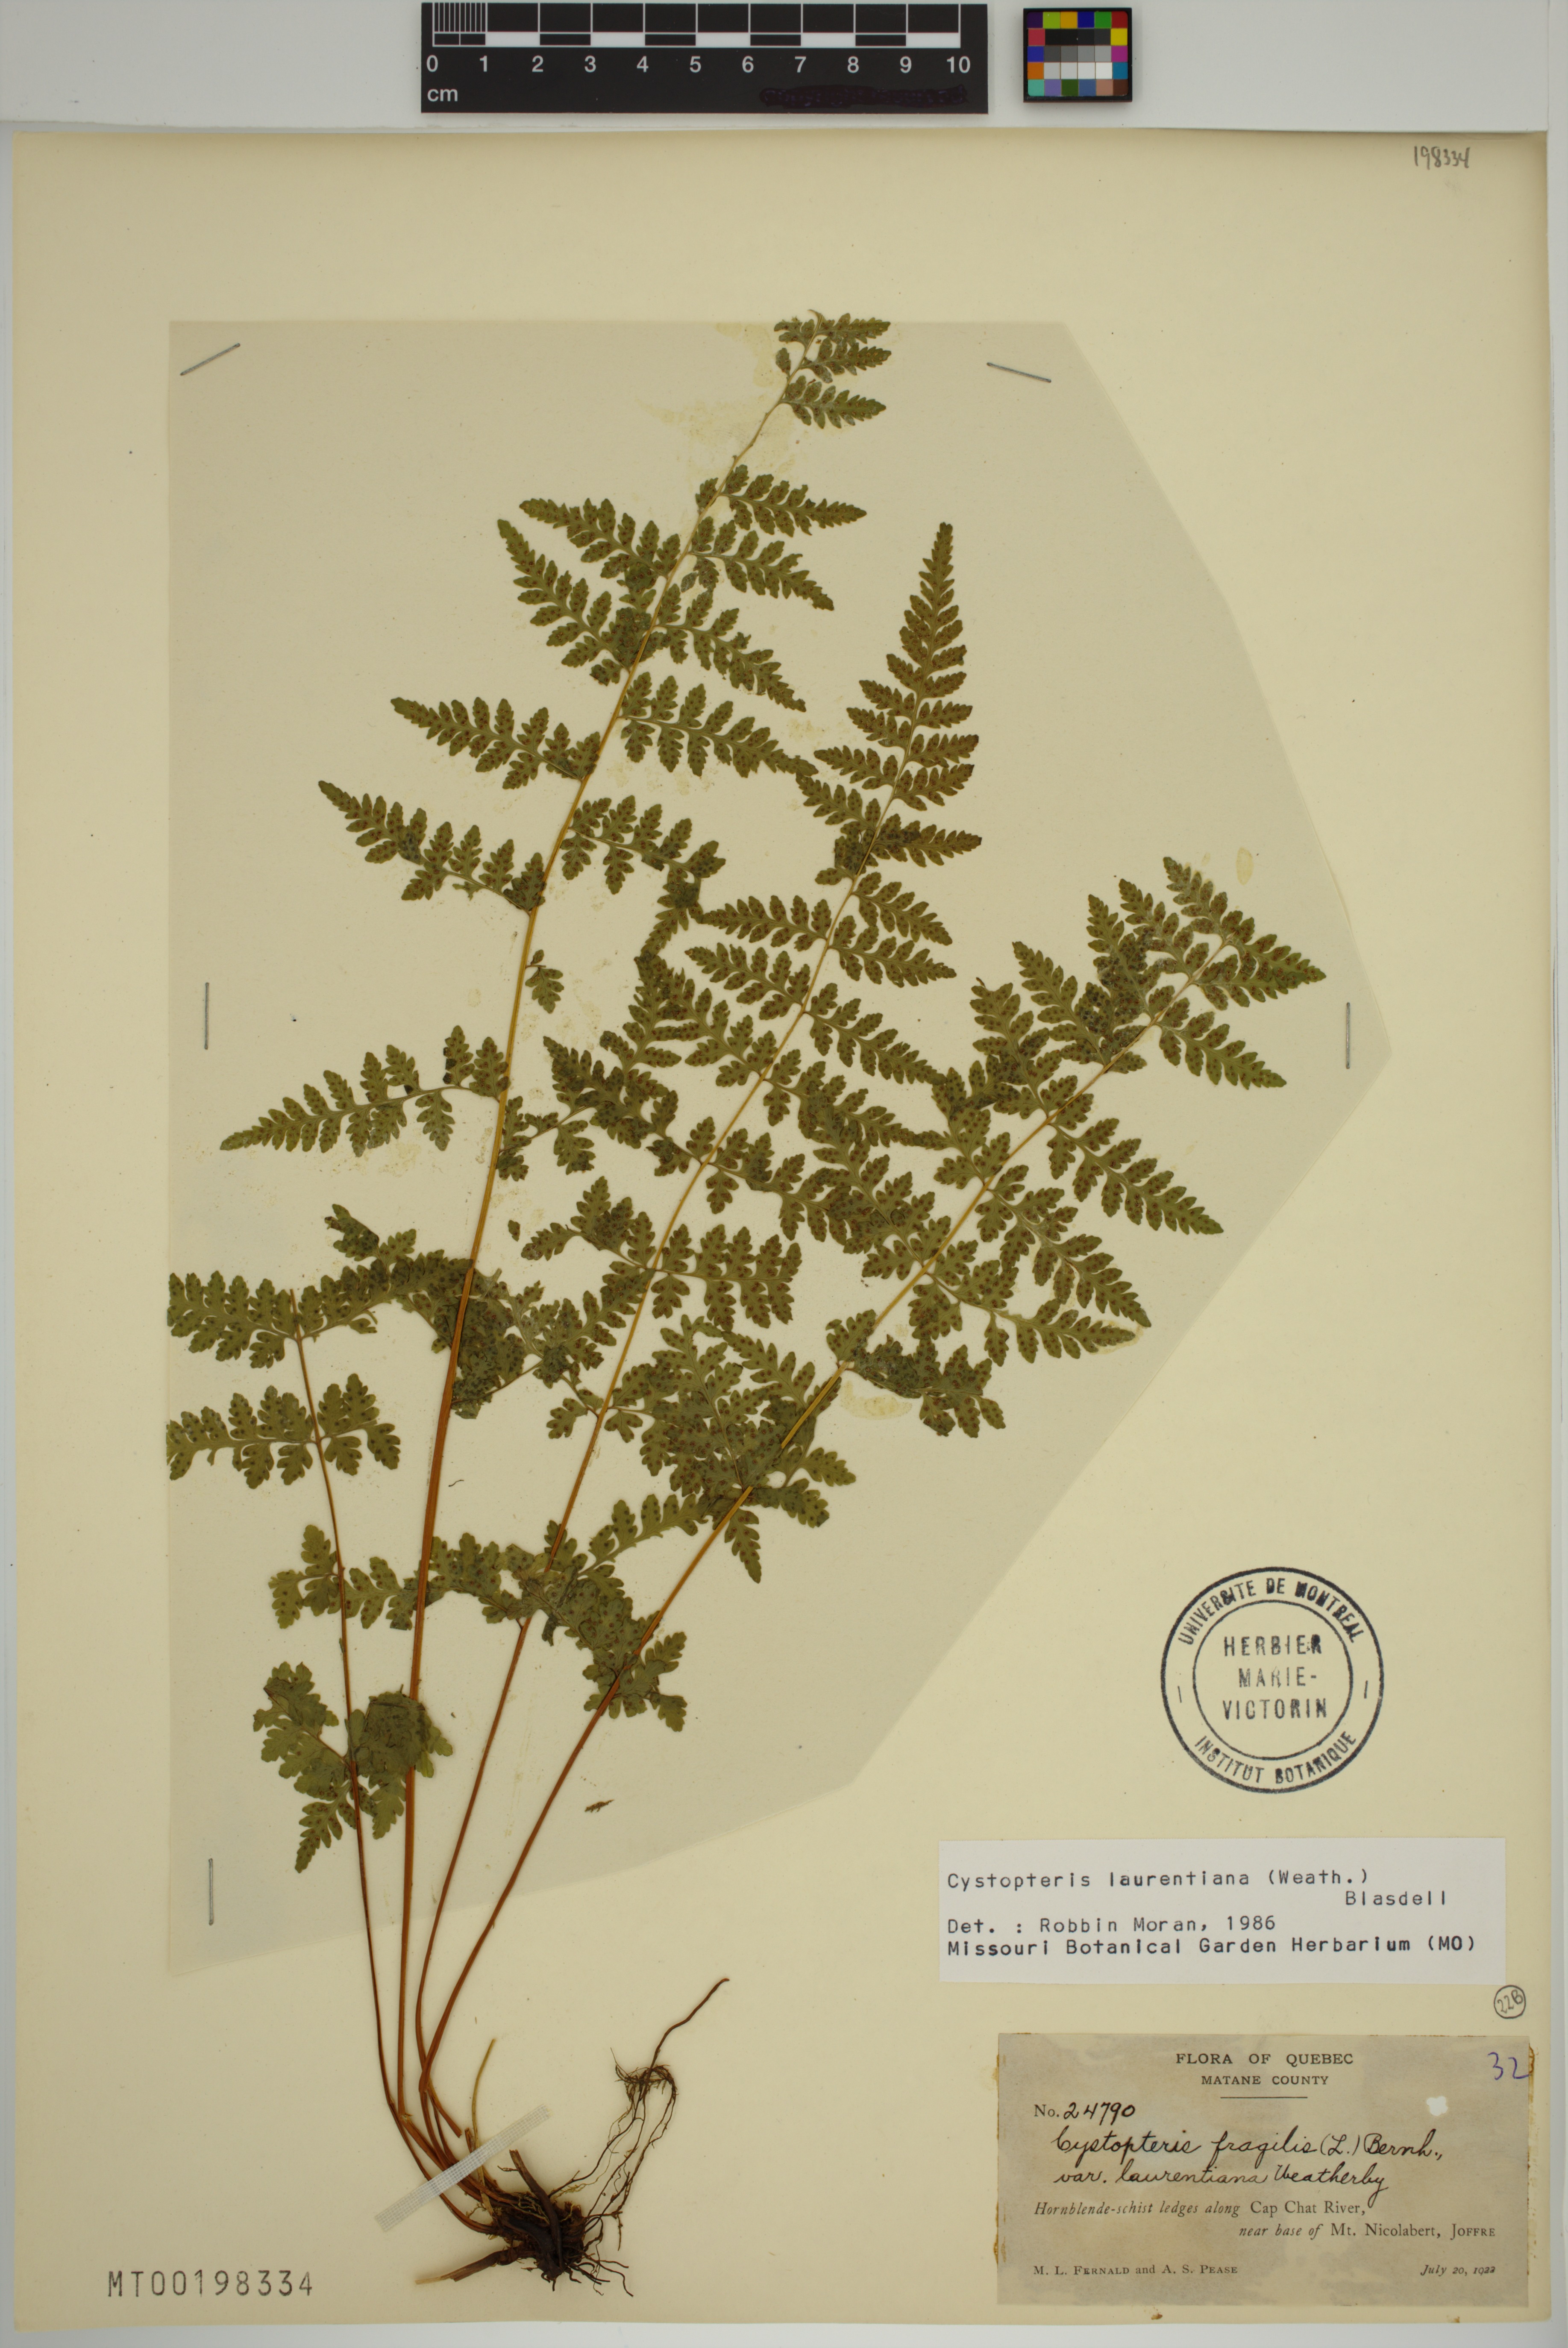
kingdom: Plantae
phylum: Tracheophyta
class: Polypodiopsida
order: Polypodiales
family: Cystopteridaceae
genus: Cystopteris
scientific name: Cystopteris laurentiana
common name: Blasdell's laurentian bladder fern
